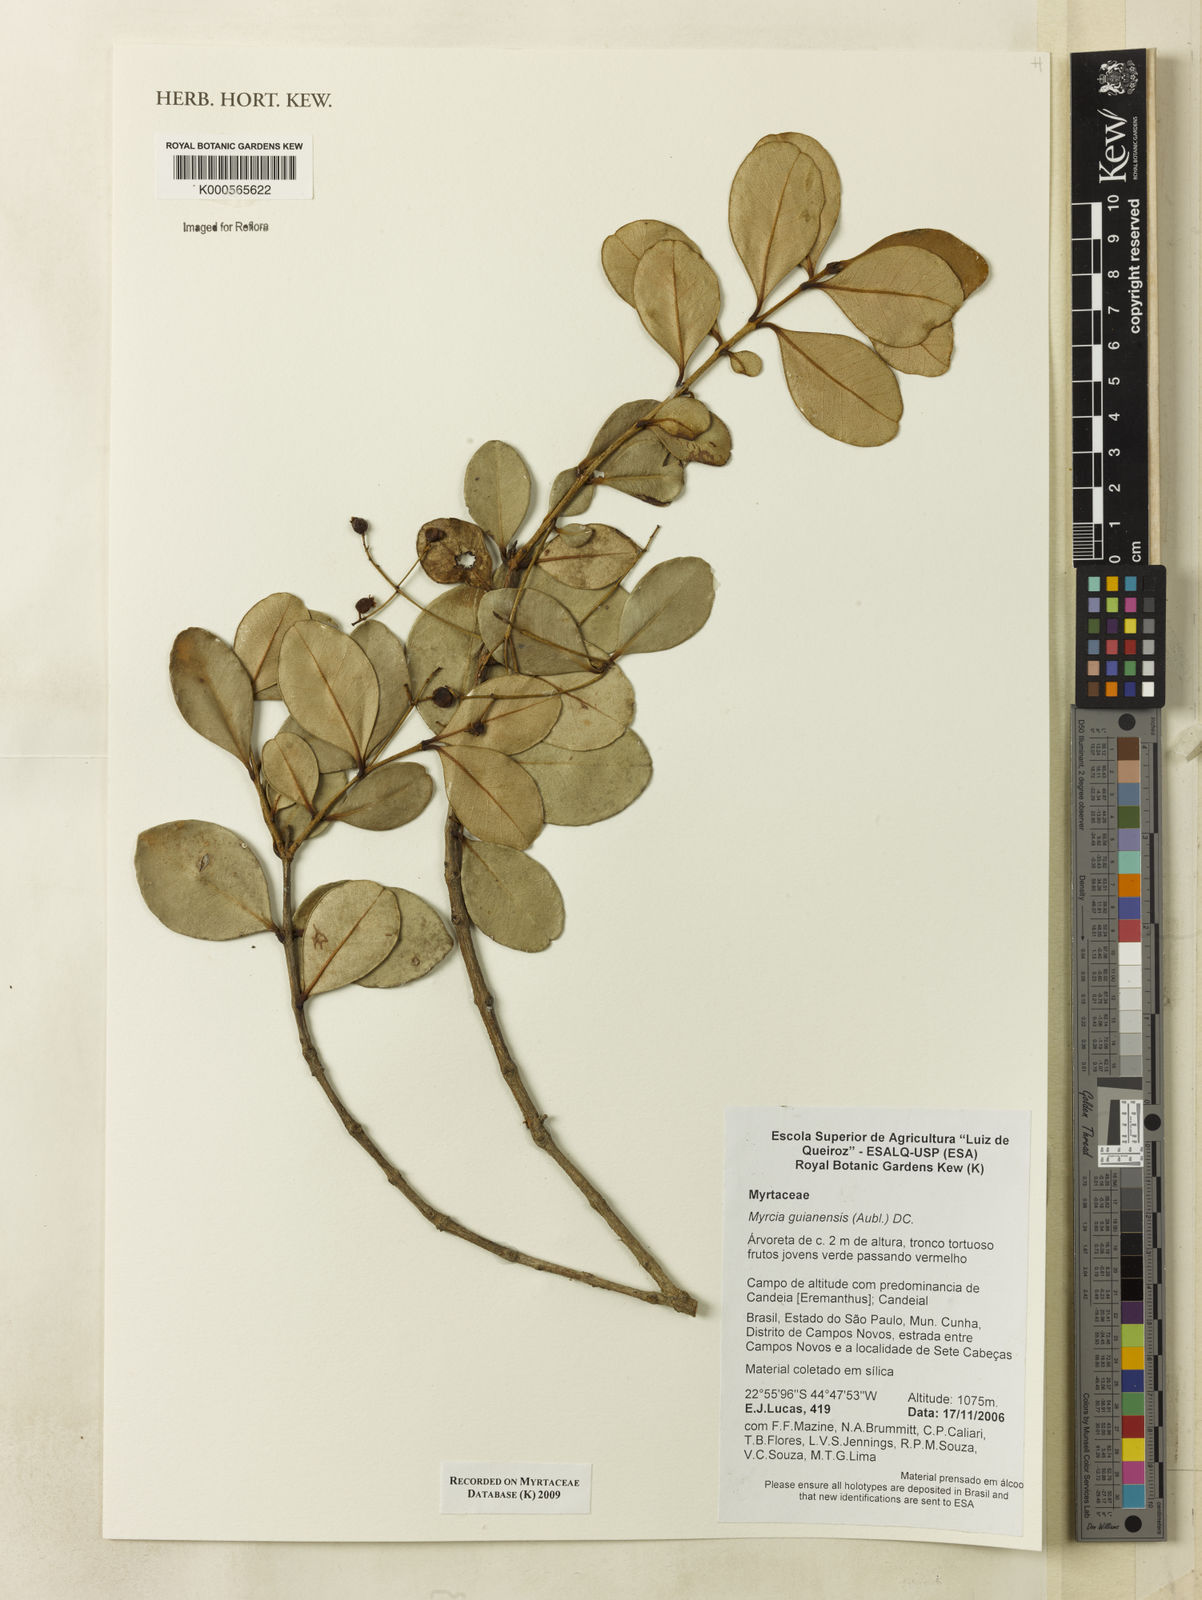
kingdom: Plantae
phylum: Tracheophyta
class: Magnoliopsida
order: Myrtales
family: Myrtaceae
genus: Myrcia
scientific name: Myrcia obovata
